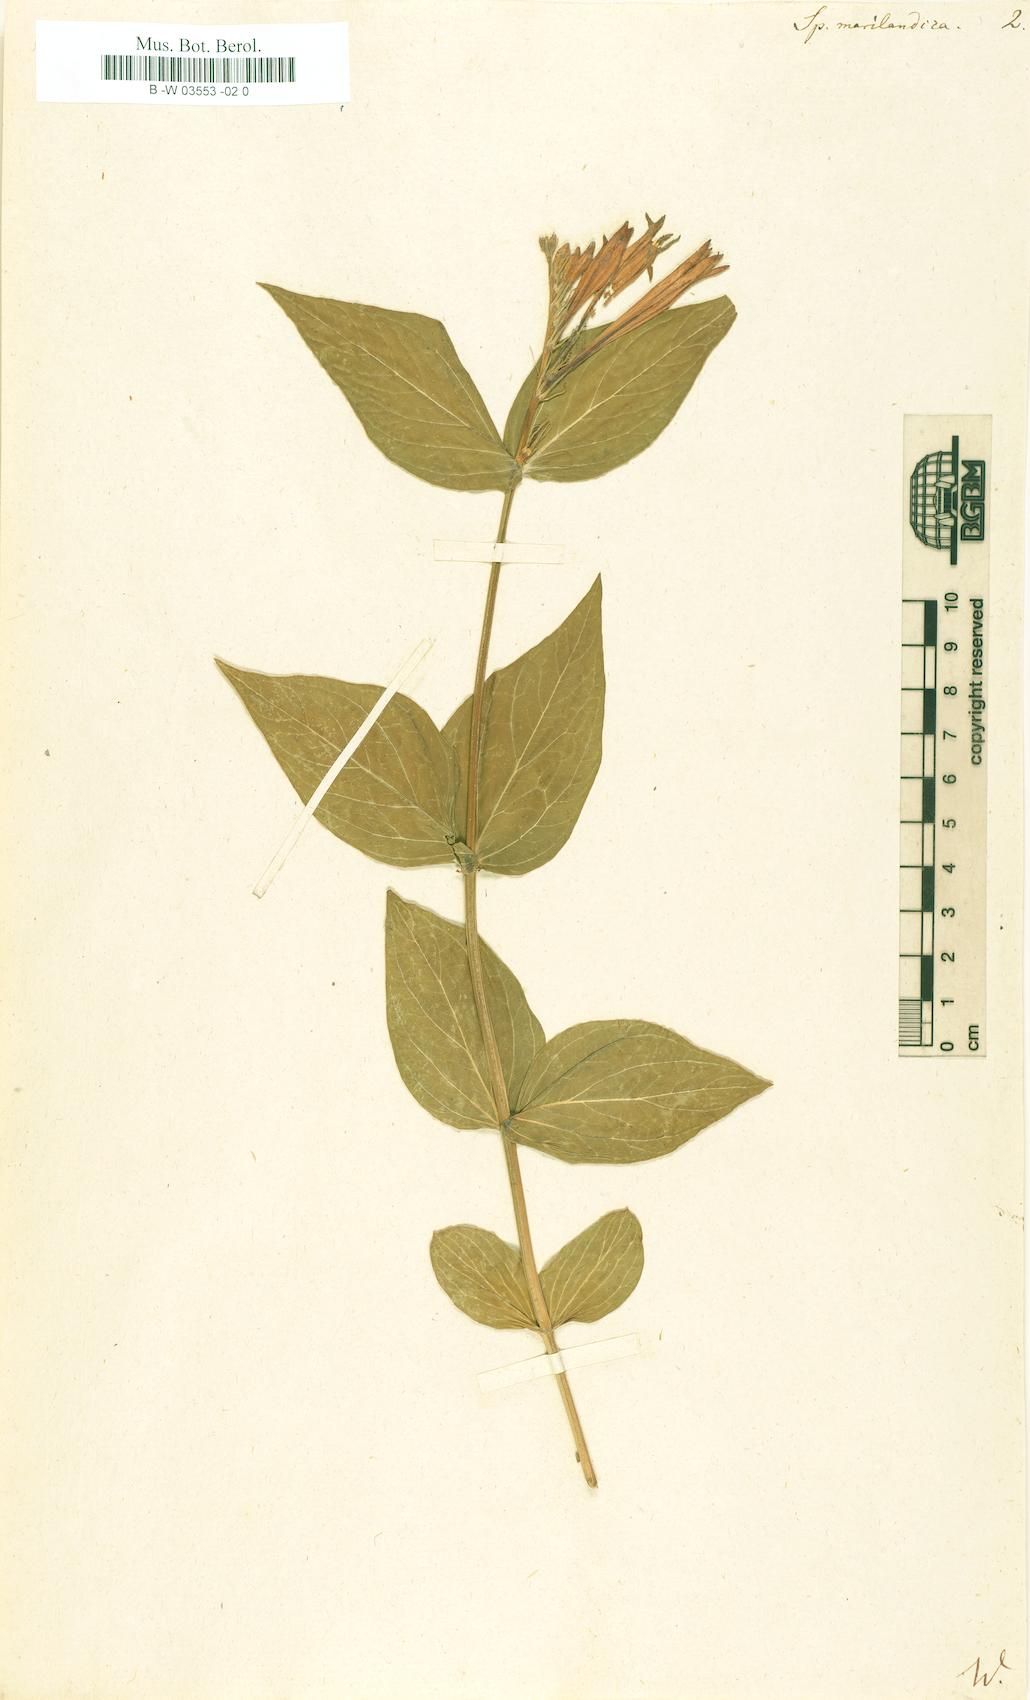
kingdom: Plantae
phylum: Tracheophyta
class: Magnoliopsida
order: Gentianales
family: Loganiaceae
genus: Spigelia
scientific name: Spigelia marilandica
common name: Indian-pink
